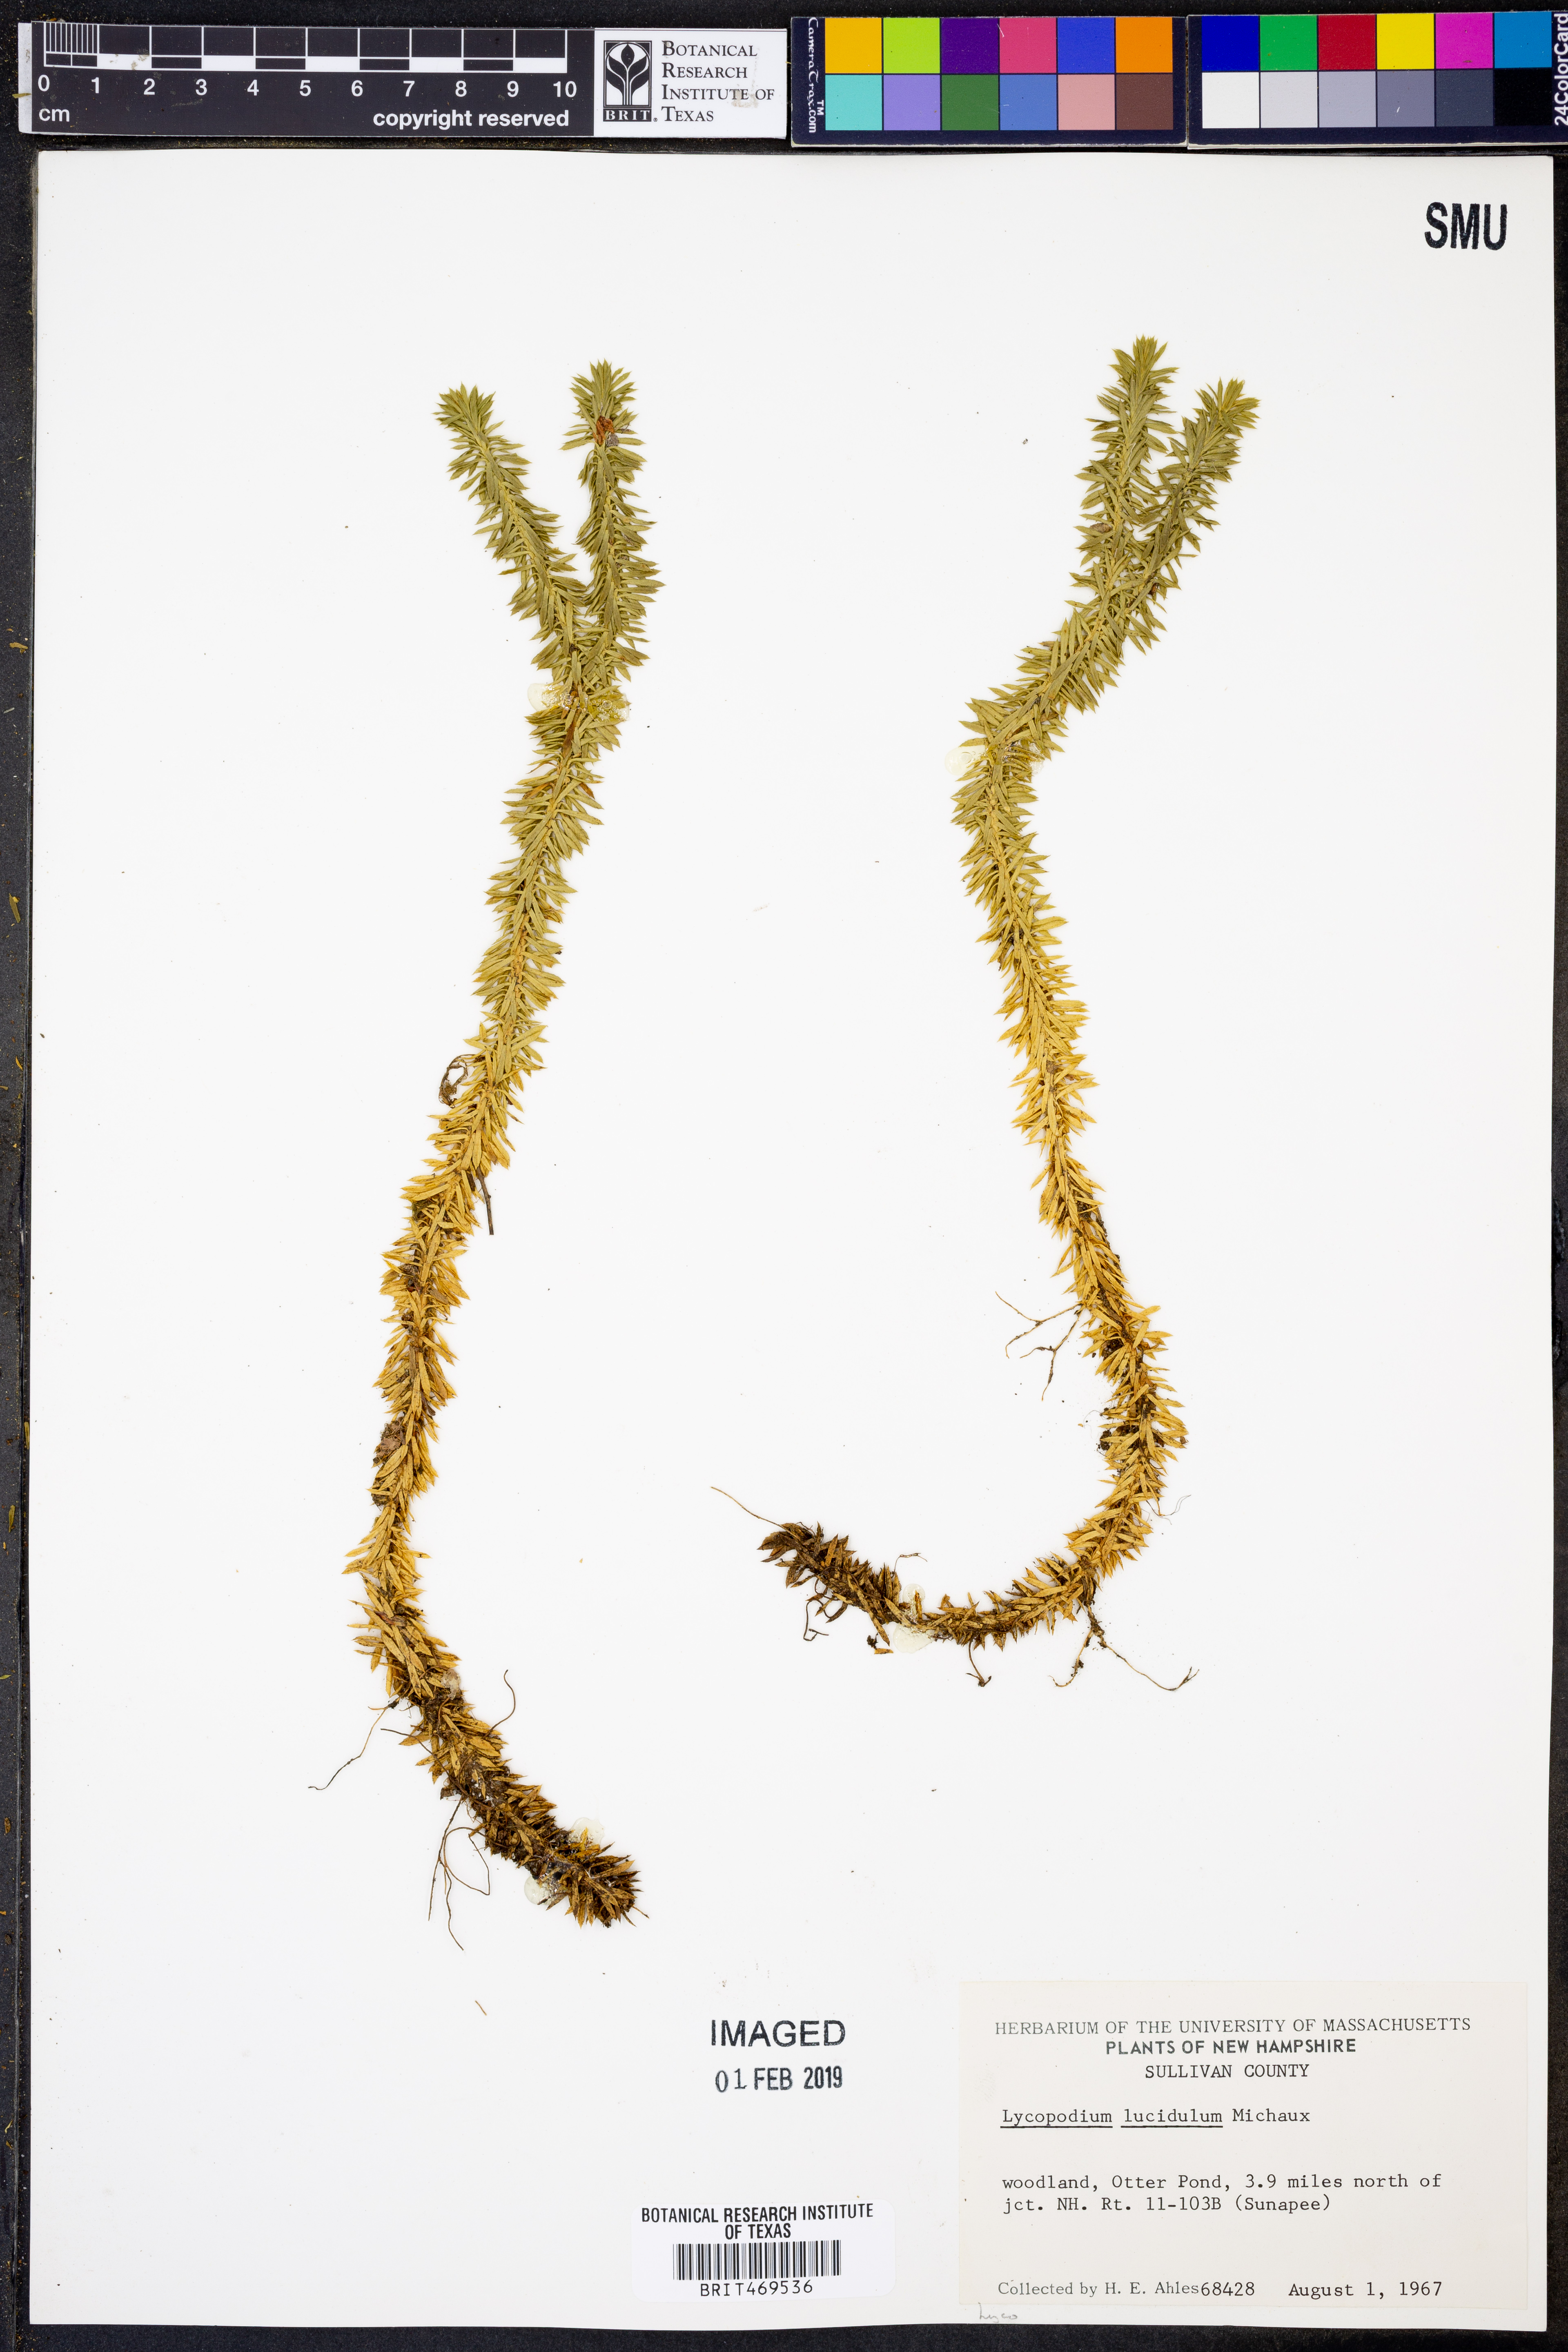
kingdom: Plantae
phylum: Tracheophyta
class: Lycopodiopsida
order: Lycopodiales
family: Lycopodiaceae
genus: Huperzia
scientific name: Huperzia lucidula
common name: Shining clubmoss
